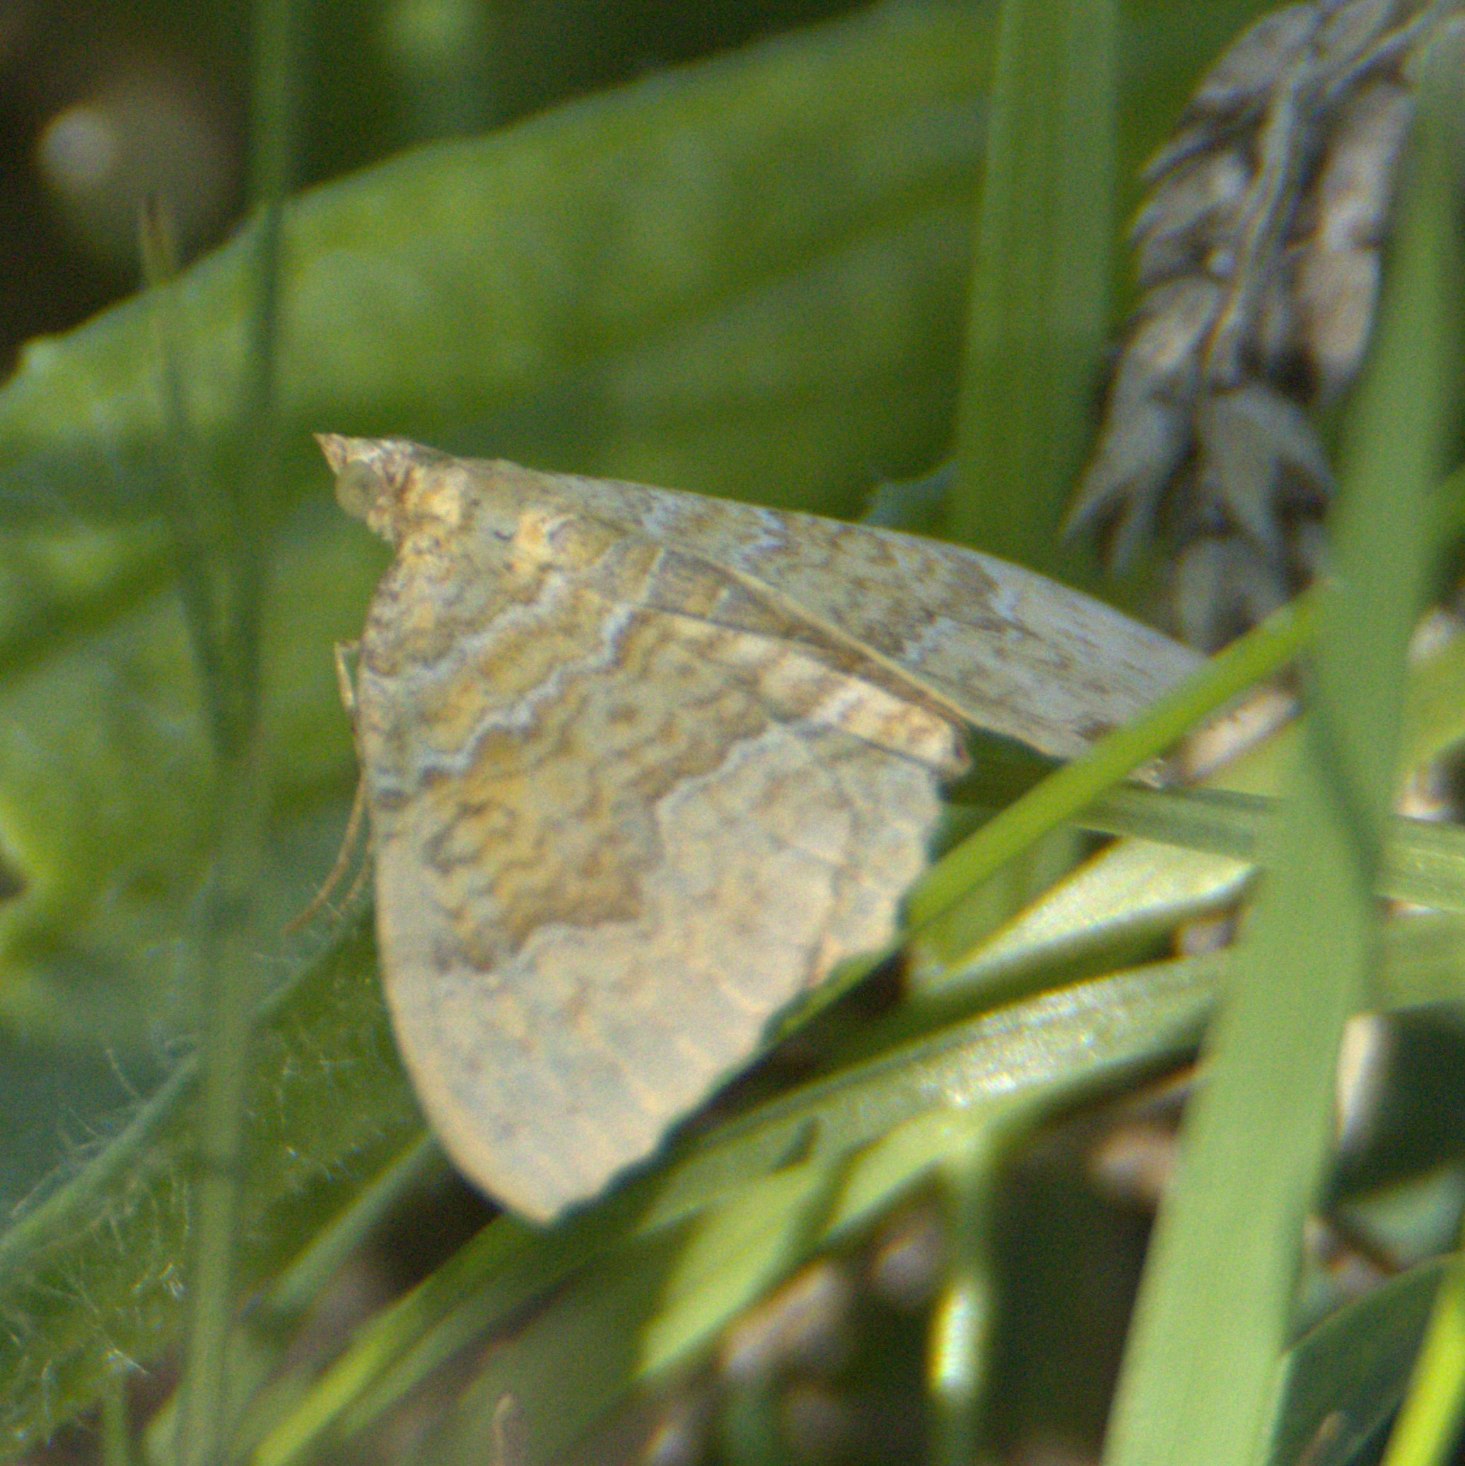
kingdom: Animalia
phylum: Arthropoda
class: Insecta
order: Lepidoptera
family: Geometridae
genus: Camptogramma
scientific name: Camptogramma bilineata
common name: Okkergul bladmåler
